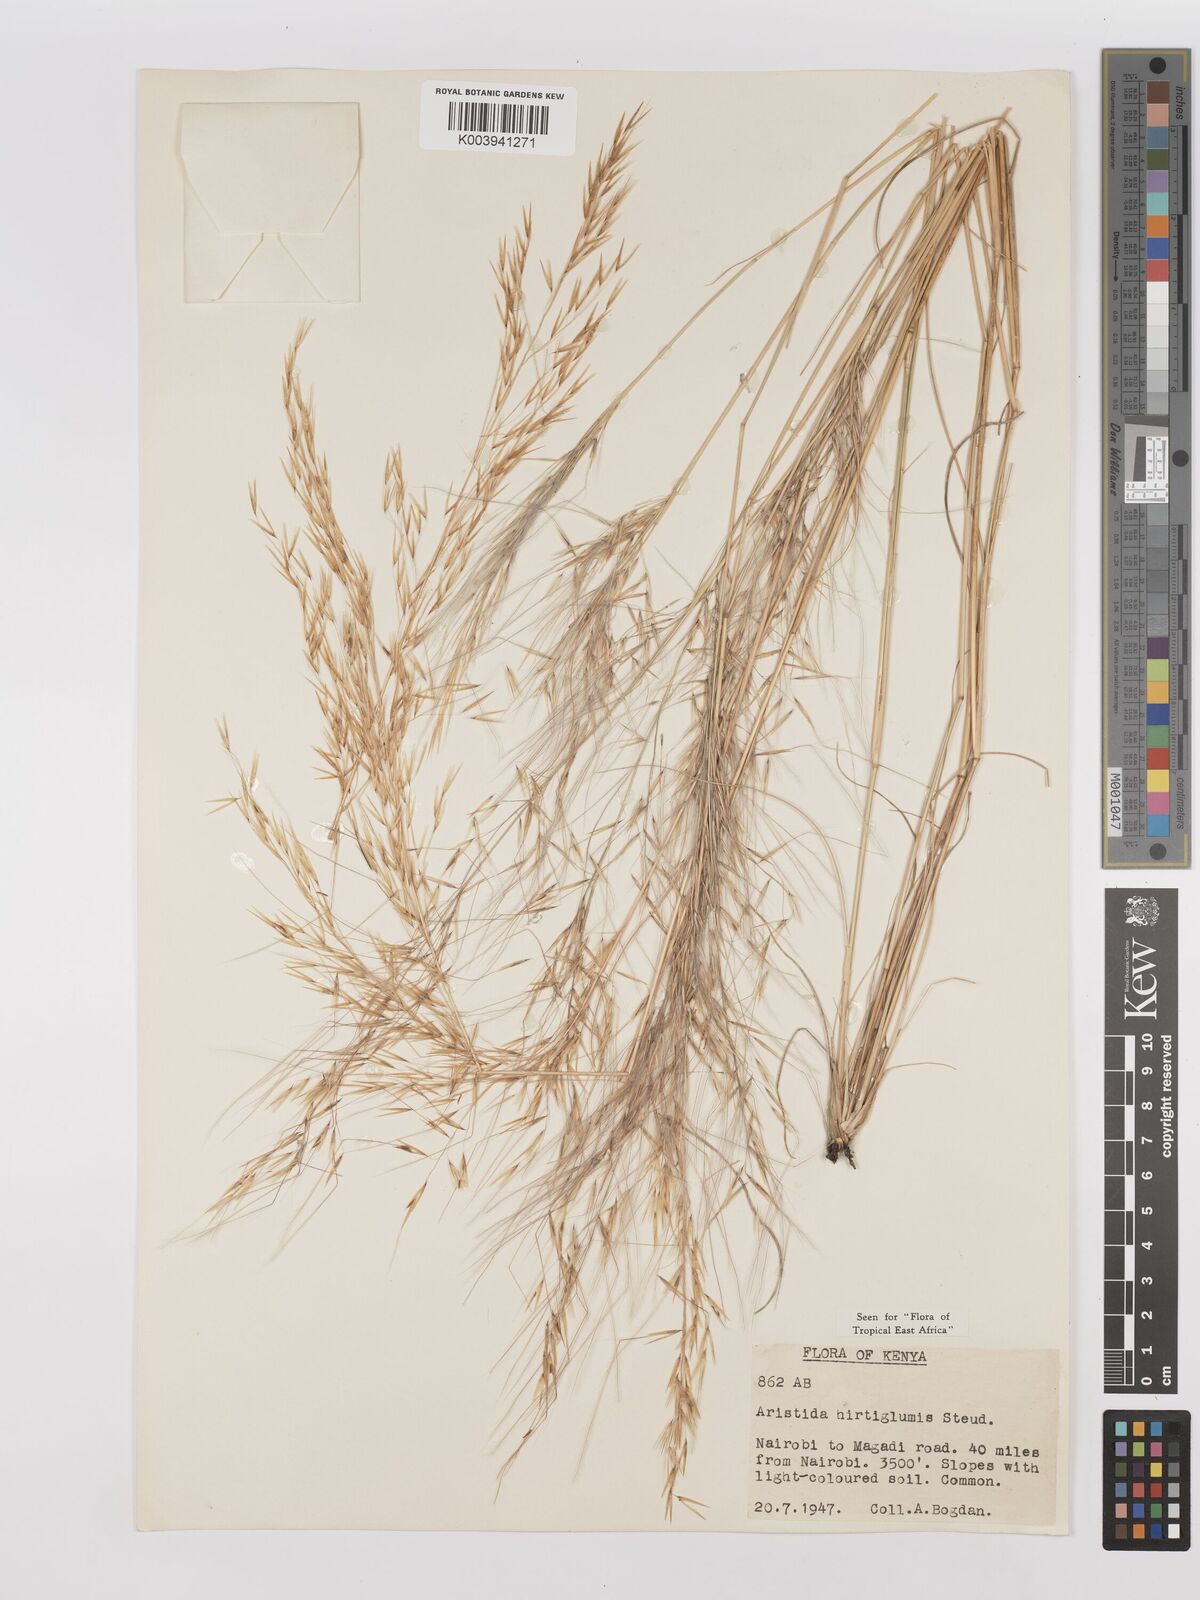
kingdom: Plantae
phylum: Tracheophyta
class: Liliopsida
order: Poales
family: Poaceae
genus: Stipagrostis
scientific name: Stipagrostis hirtigluma
